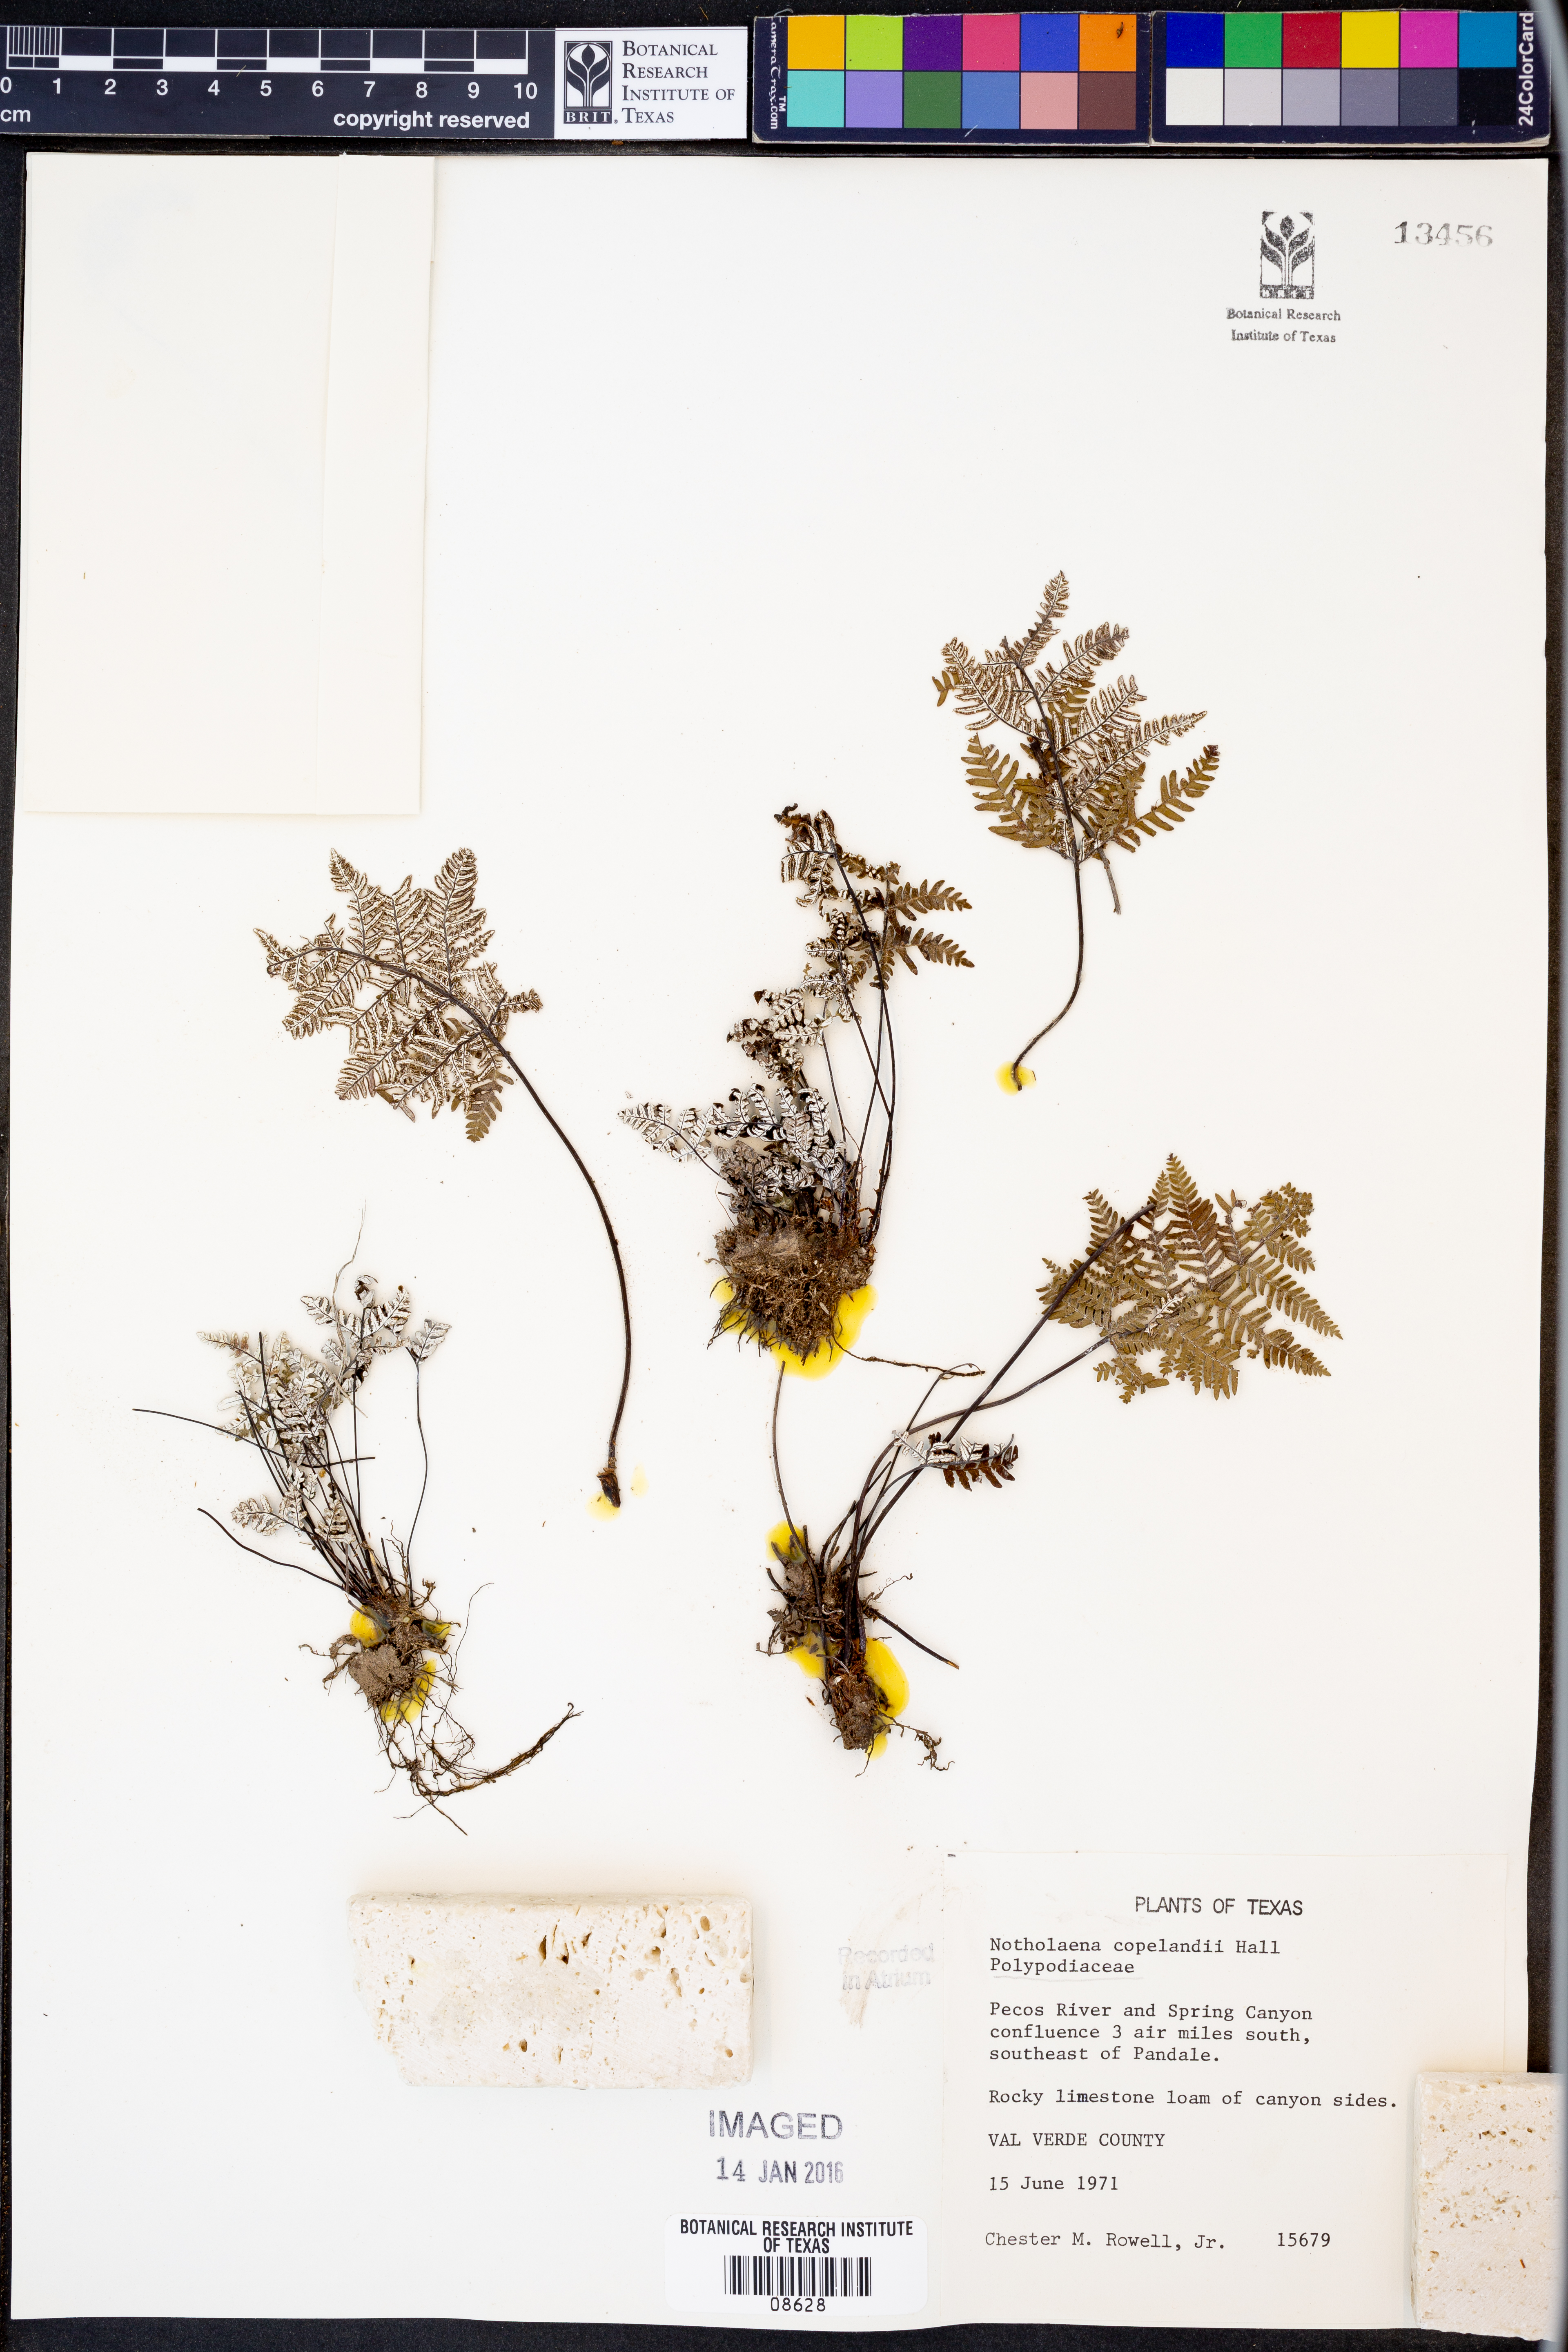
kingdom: Plantae
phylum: Tracheophyta
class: Polypodiopsida
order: Polypodiales
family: Pteridaceae
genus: Notholaena
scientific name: Notholaena candida
